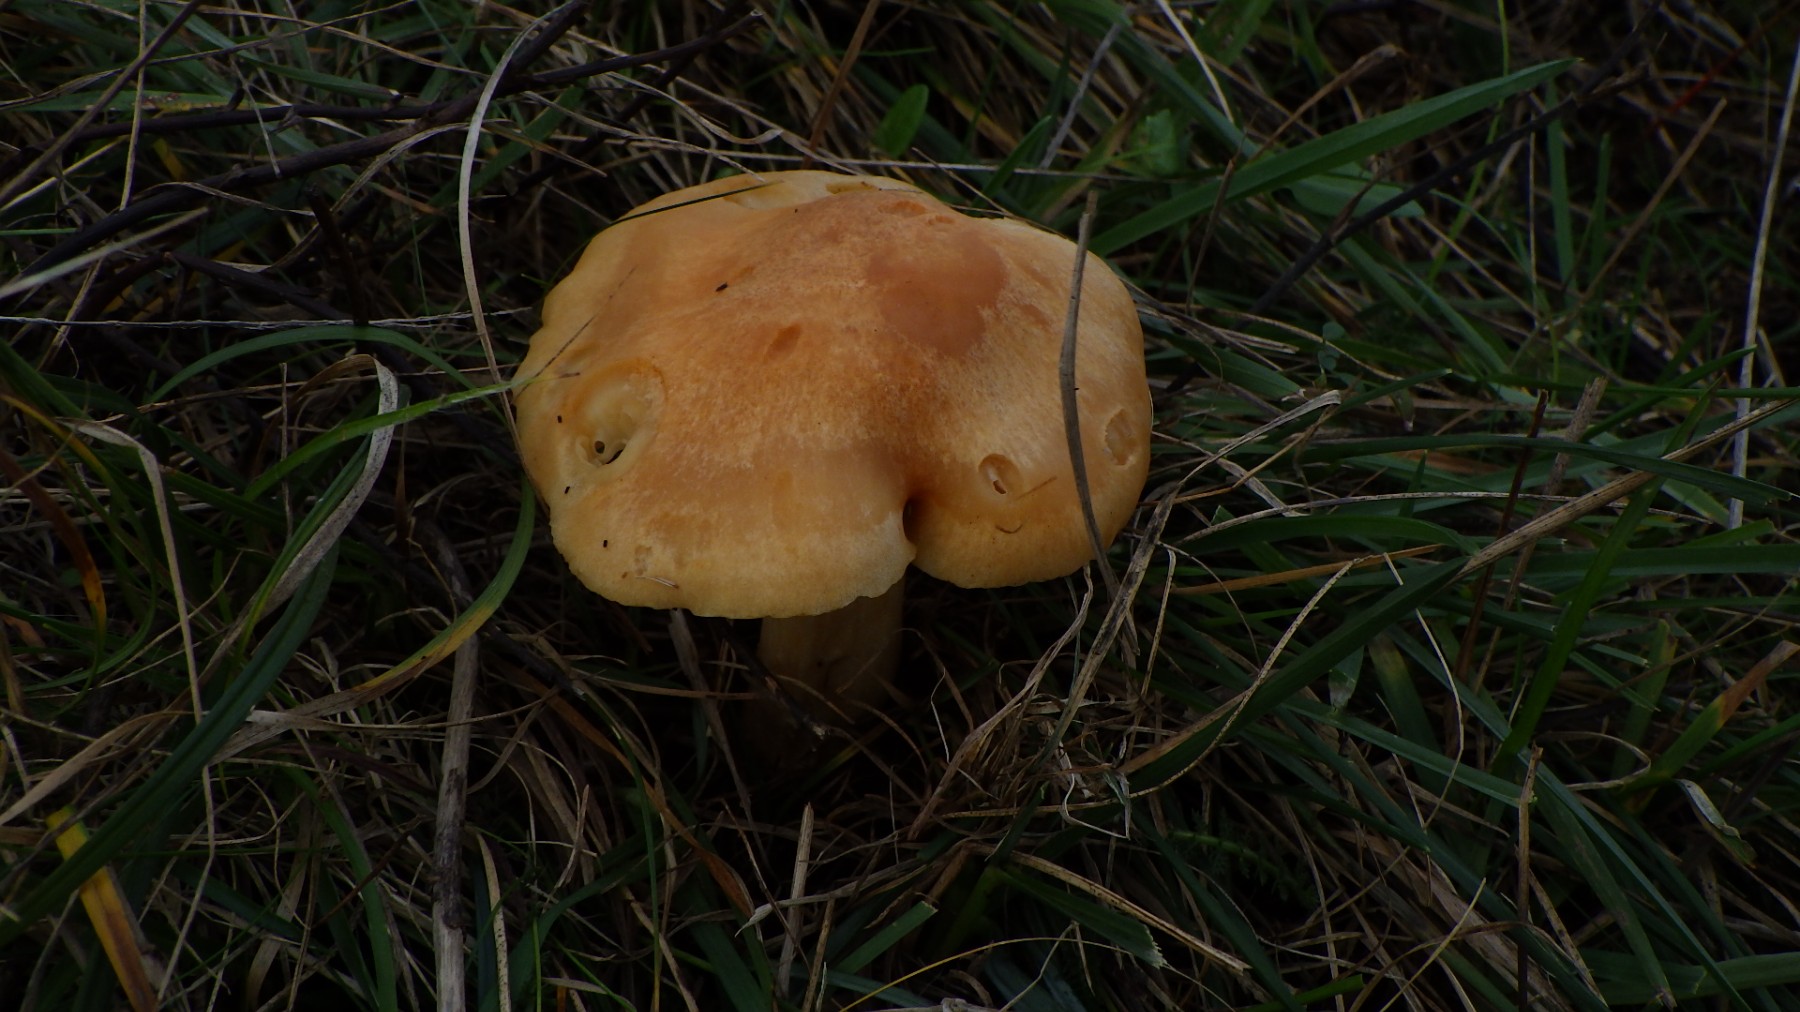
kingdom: Fungi
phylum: Basidiomycota
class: Agaricomycetes
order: Agaricales
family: Hygrophoraceae
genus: Cuphophyllus
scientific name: Cuphophyllus pratensis
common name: eng-vokshat
